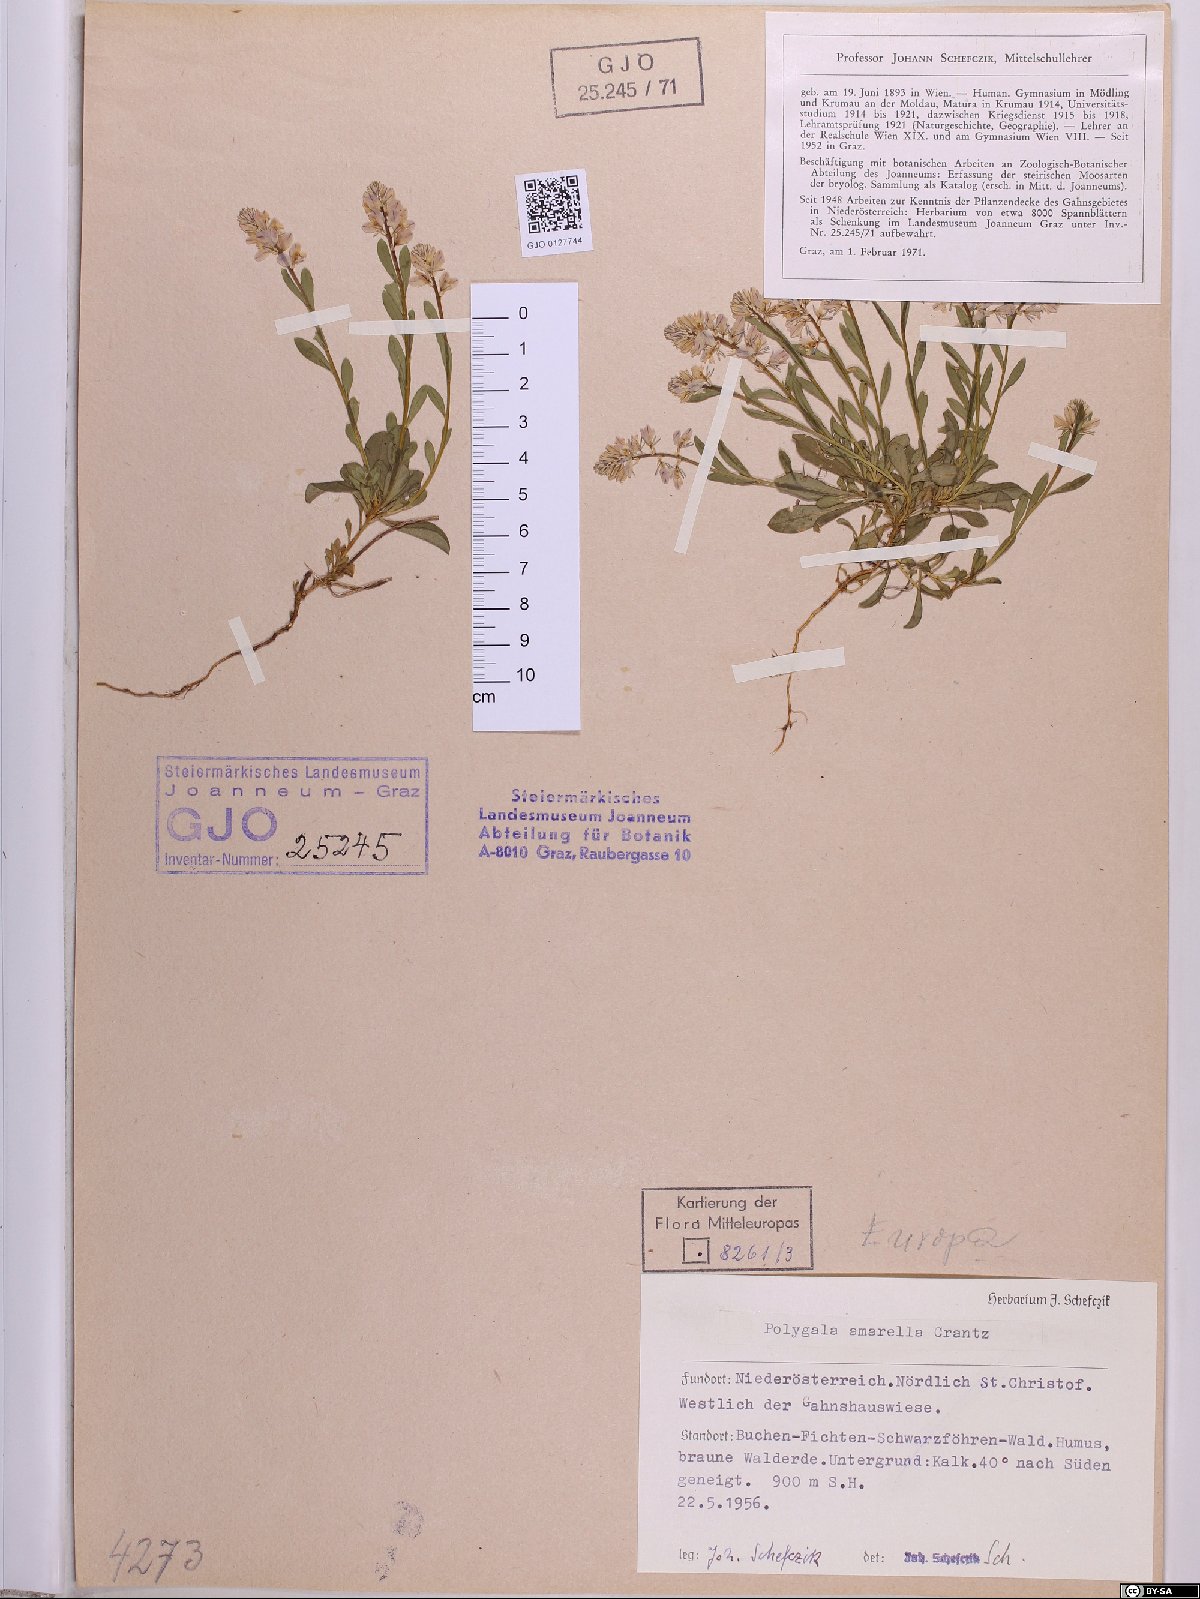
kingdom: Plantae
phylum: Tracheophyta
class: Magnoliopsida
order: Fabales
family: Polygalaceae
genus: Polygala
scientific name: Polygala amarella
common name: Dwarf milkwort
